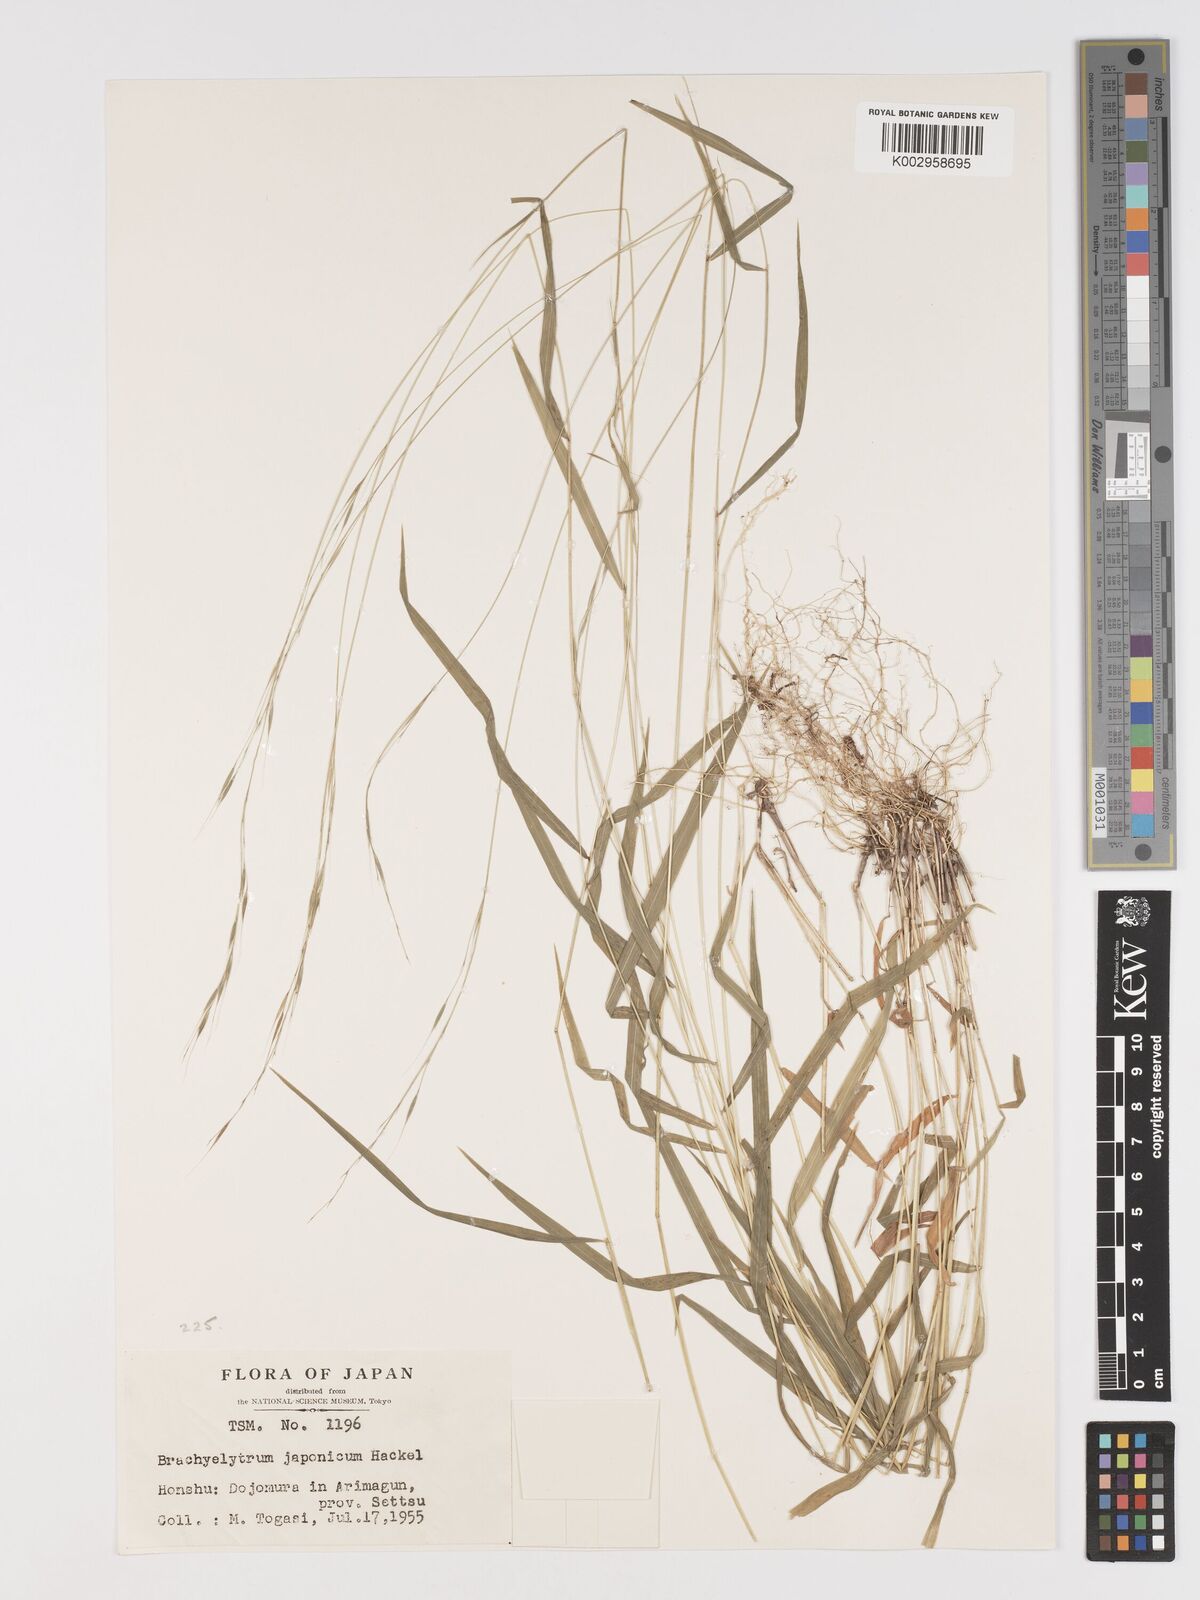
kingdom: Plantae
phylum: Tracheophyta
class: Liliopsida
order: Poales
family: Poaceae
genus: Brachyelytrum
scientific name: Brachyelytrum japonicum
